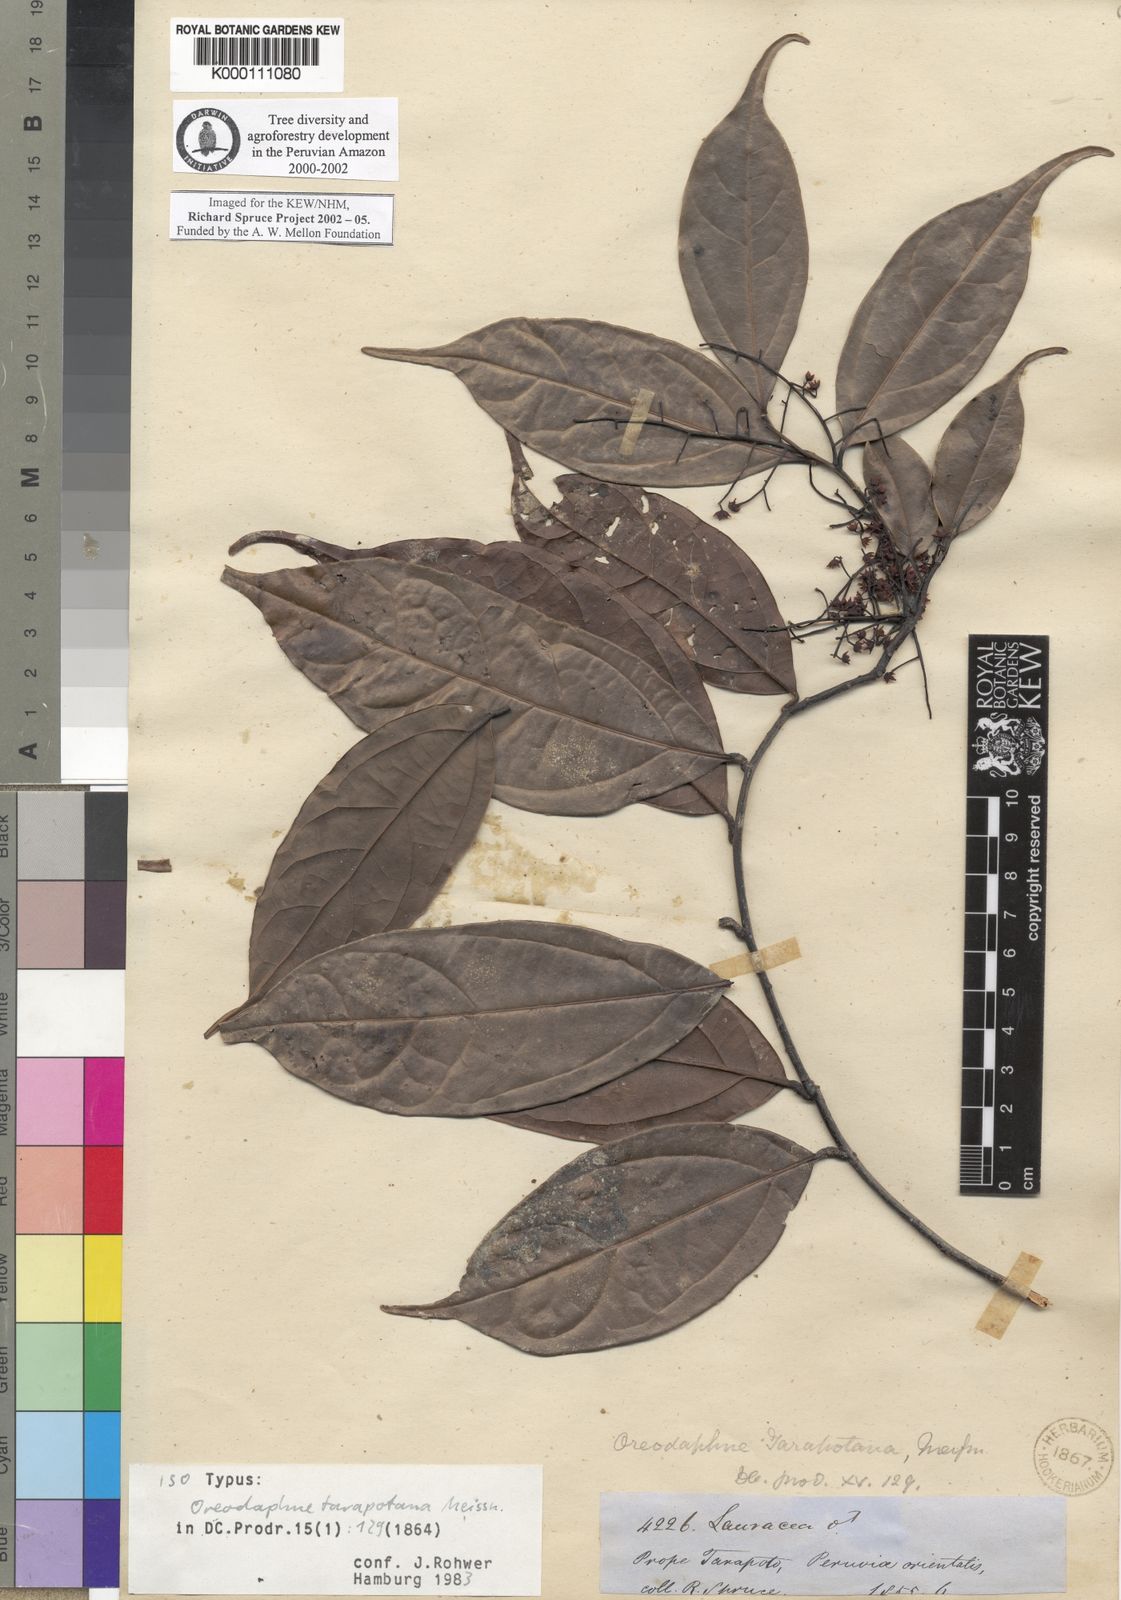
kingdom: Plantae
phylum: Tracheophyta
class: Magnoliopsida
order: Laurales
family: Lauraceae
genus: Ocotea
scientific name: Ocotea tarapotana
